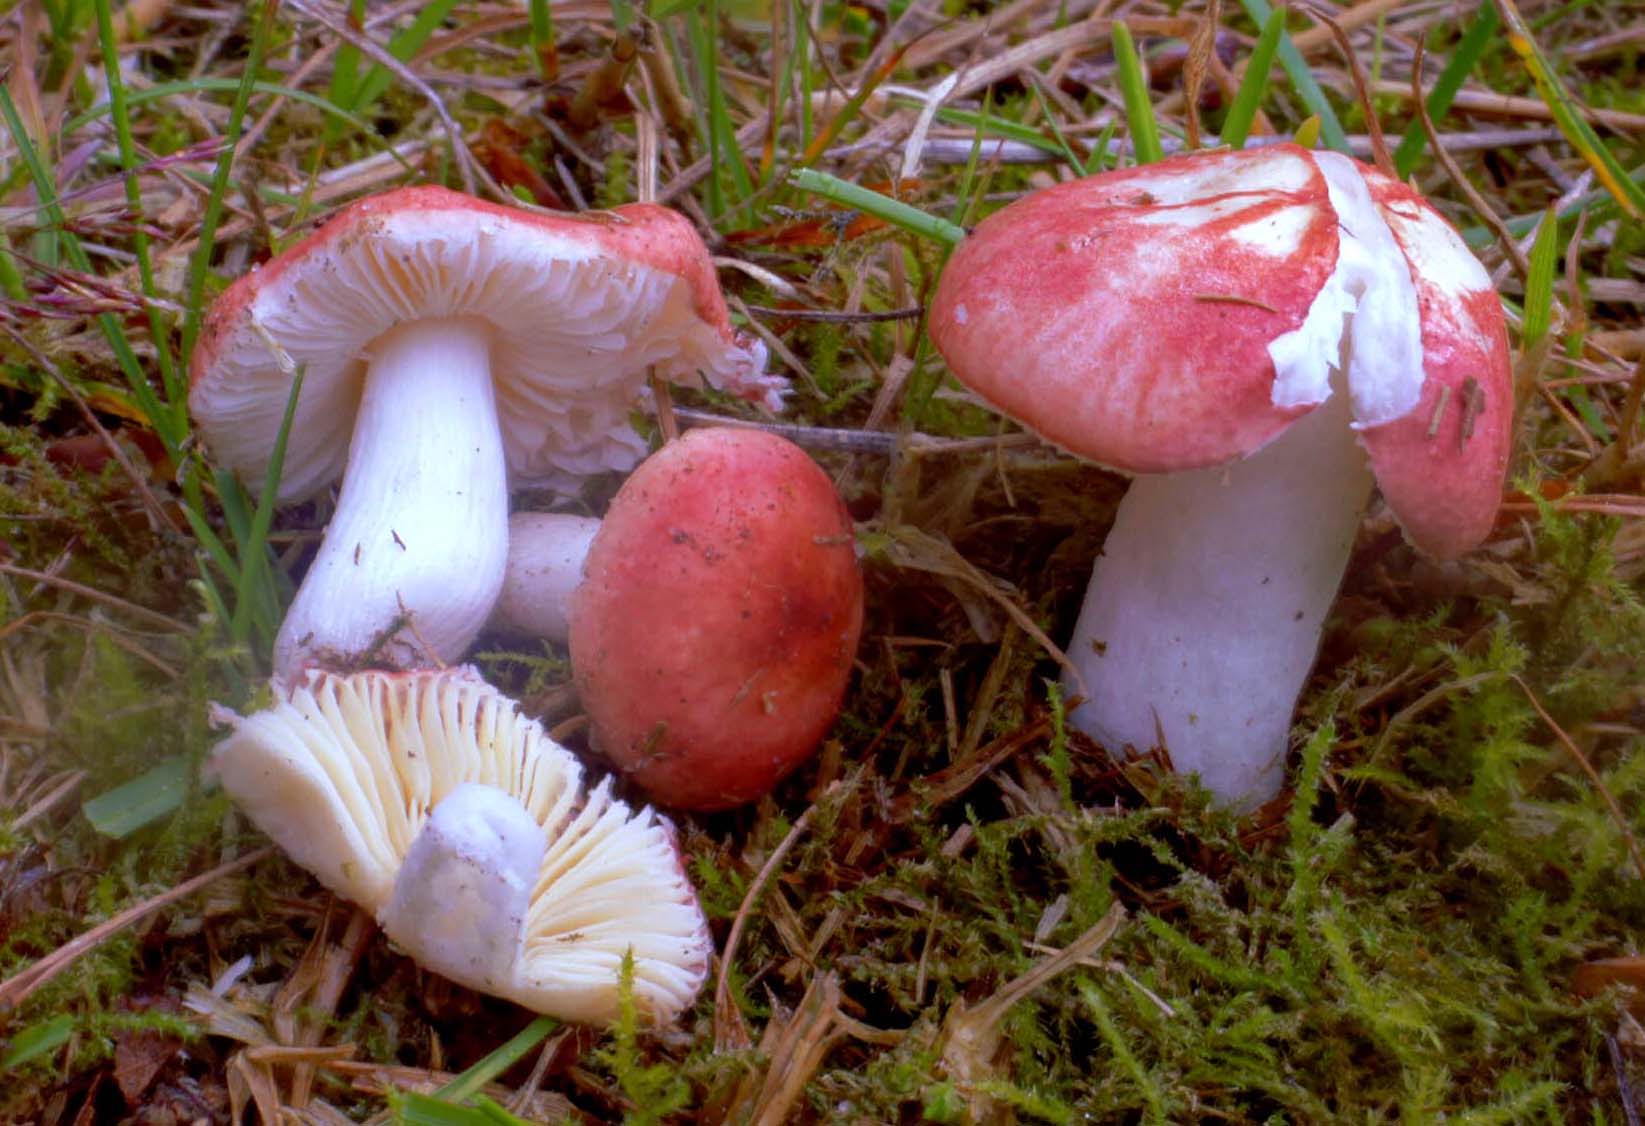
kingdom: Fungi
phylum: Basidiomycota
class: Agaricomycetes
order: Russulales
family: Russulaceae
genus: Russula
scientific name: Russula melzeri
